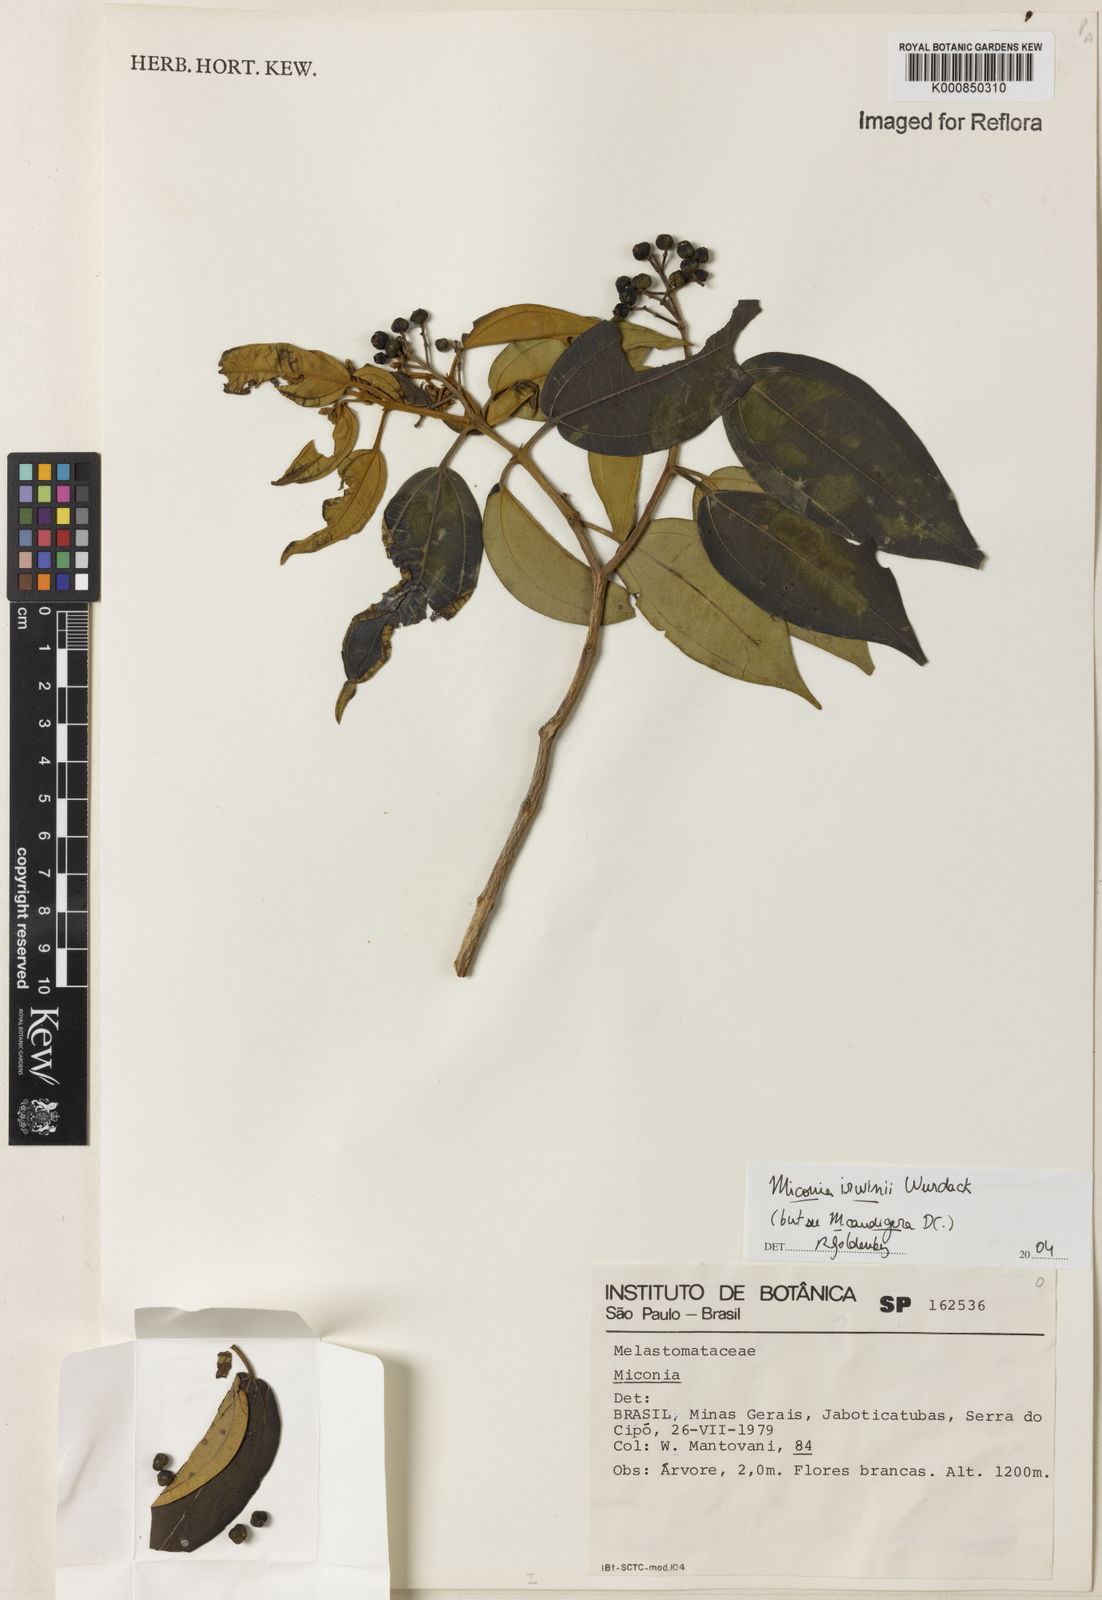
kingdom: Plantae
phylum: Tracheophyta
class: Magnoliopsida
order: Myrtales
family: Melastomataceae
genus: Miconia
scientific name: Miconia irwinii
